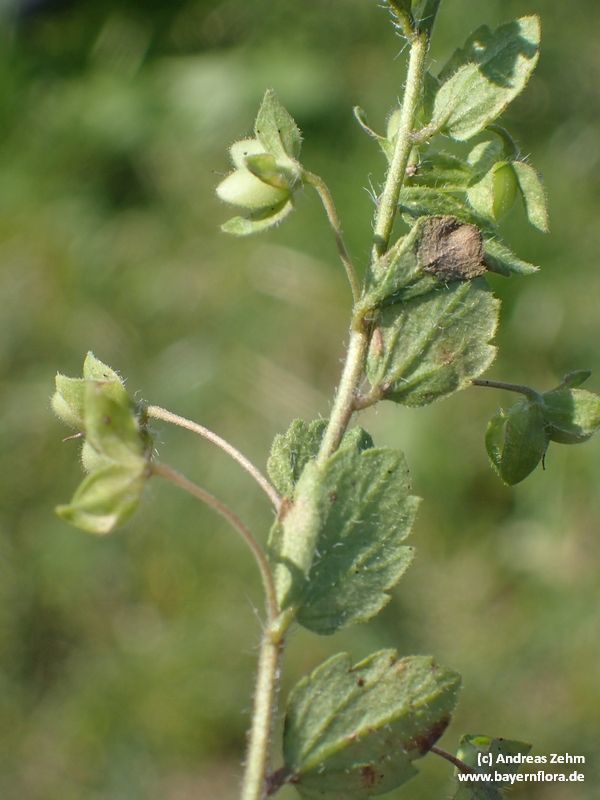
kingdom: Plantae
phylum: Tracheophyta
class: Magnoliopsida
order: Lamiales
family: Plantaginaceae
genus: Veronica
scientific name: Veronica persica
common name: Common field-speedwell
